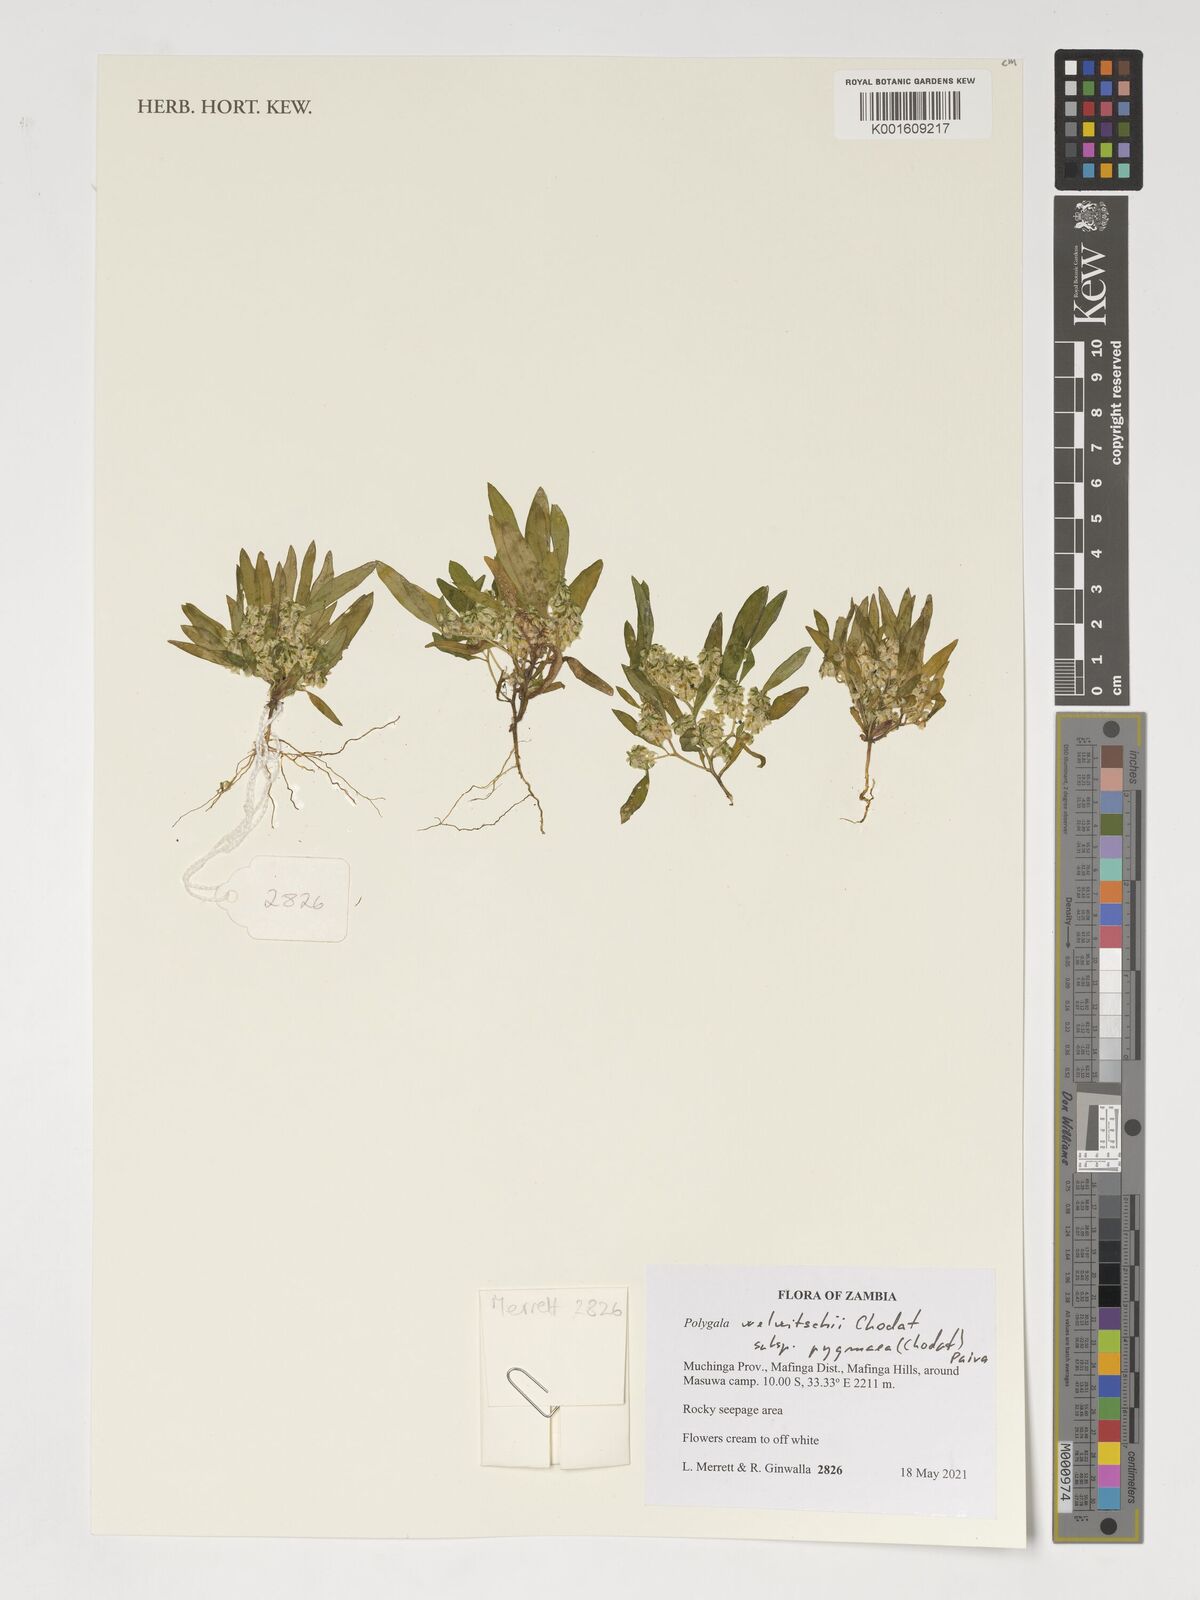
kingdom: Plantae
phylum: Tracheophyta
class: Magnoliopsida
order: Fabales
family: Polygalaceae
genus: Polygala
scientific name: Polygala welwitschii
